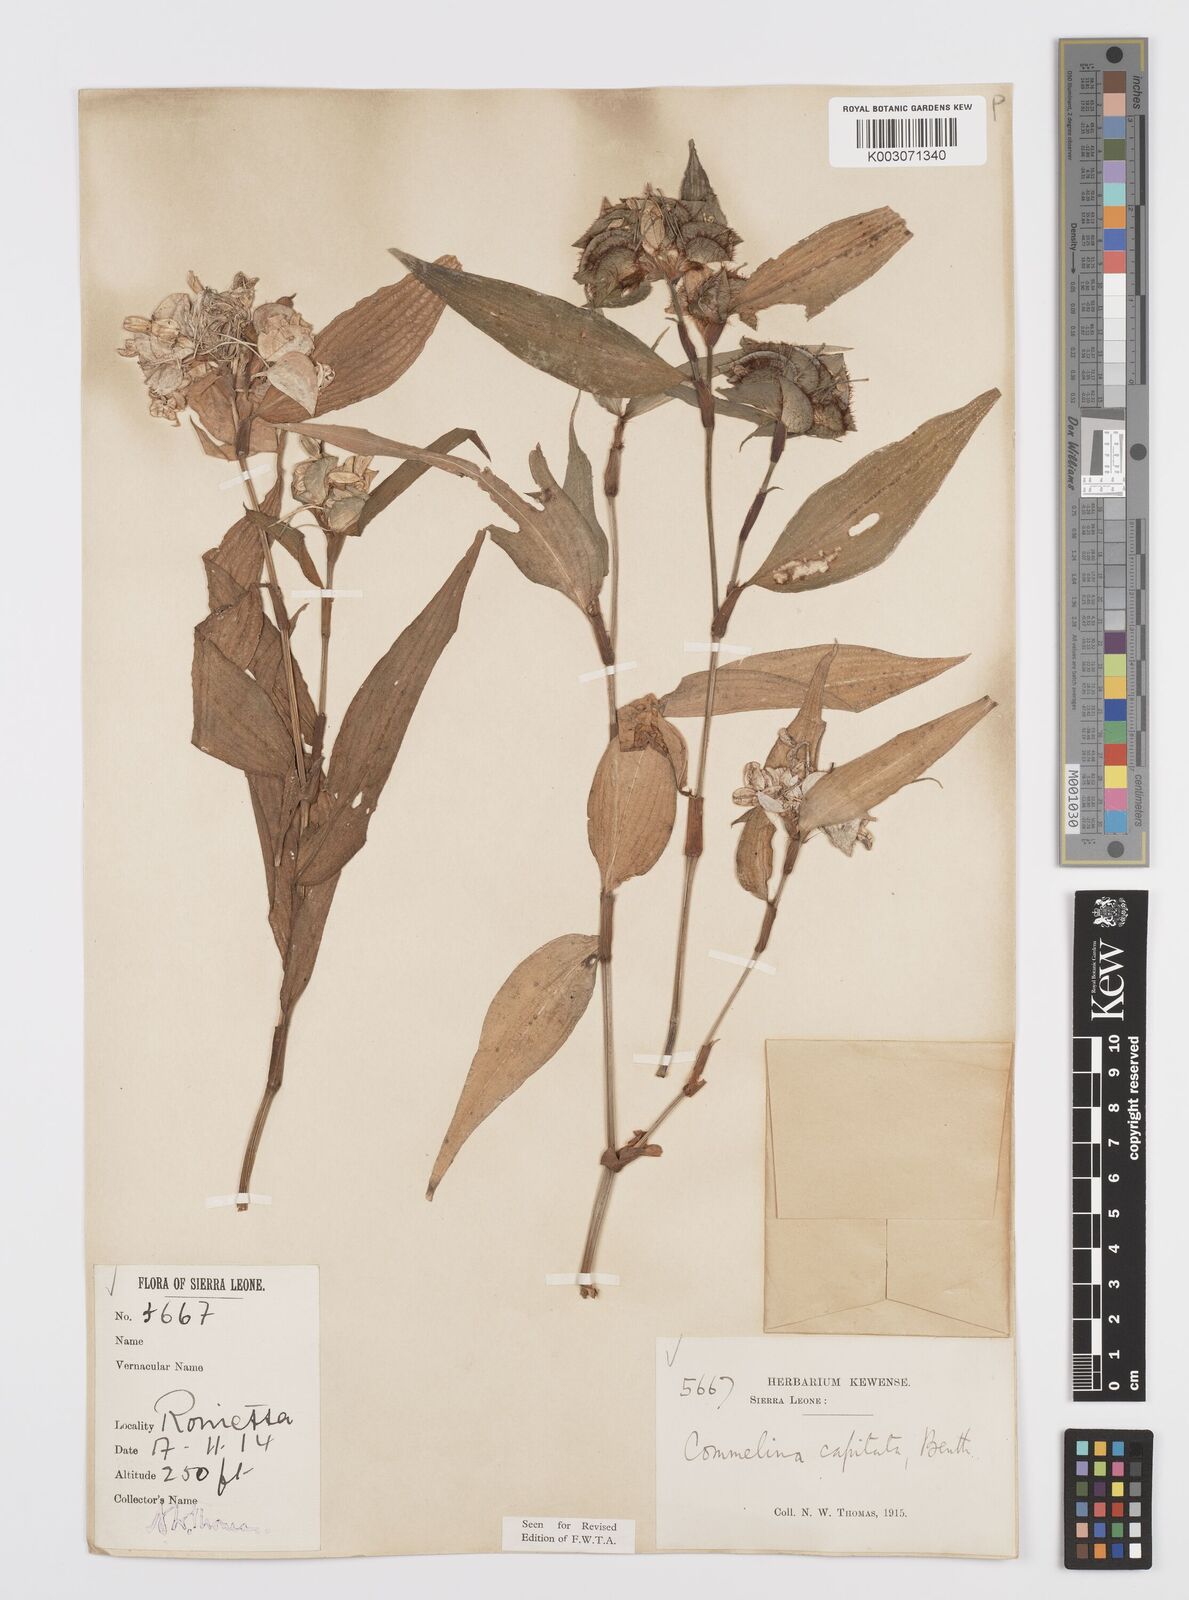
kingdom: Plantae
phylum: Tracheophyta
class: Liliopsida
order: Commelinales
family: Commelinaceae
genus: Commelina
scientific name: Commelina capitata
